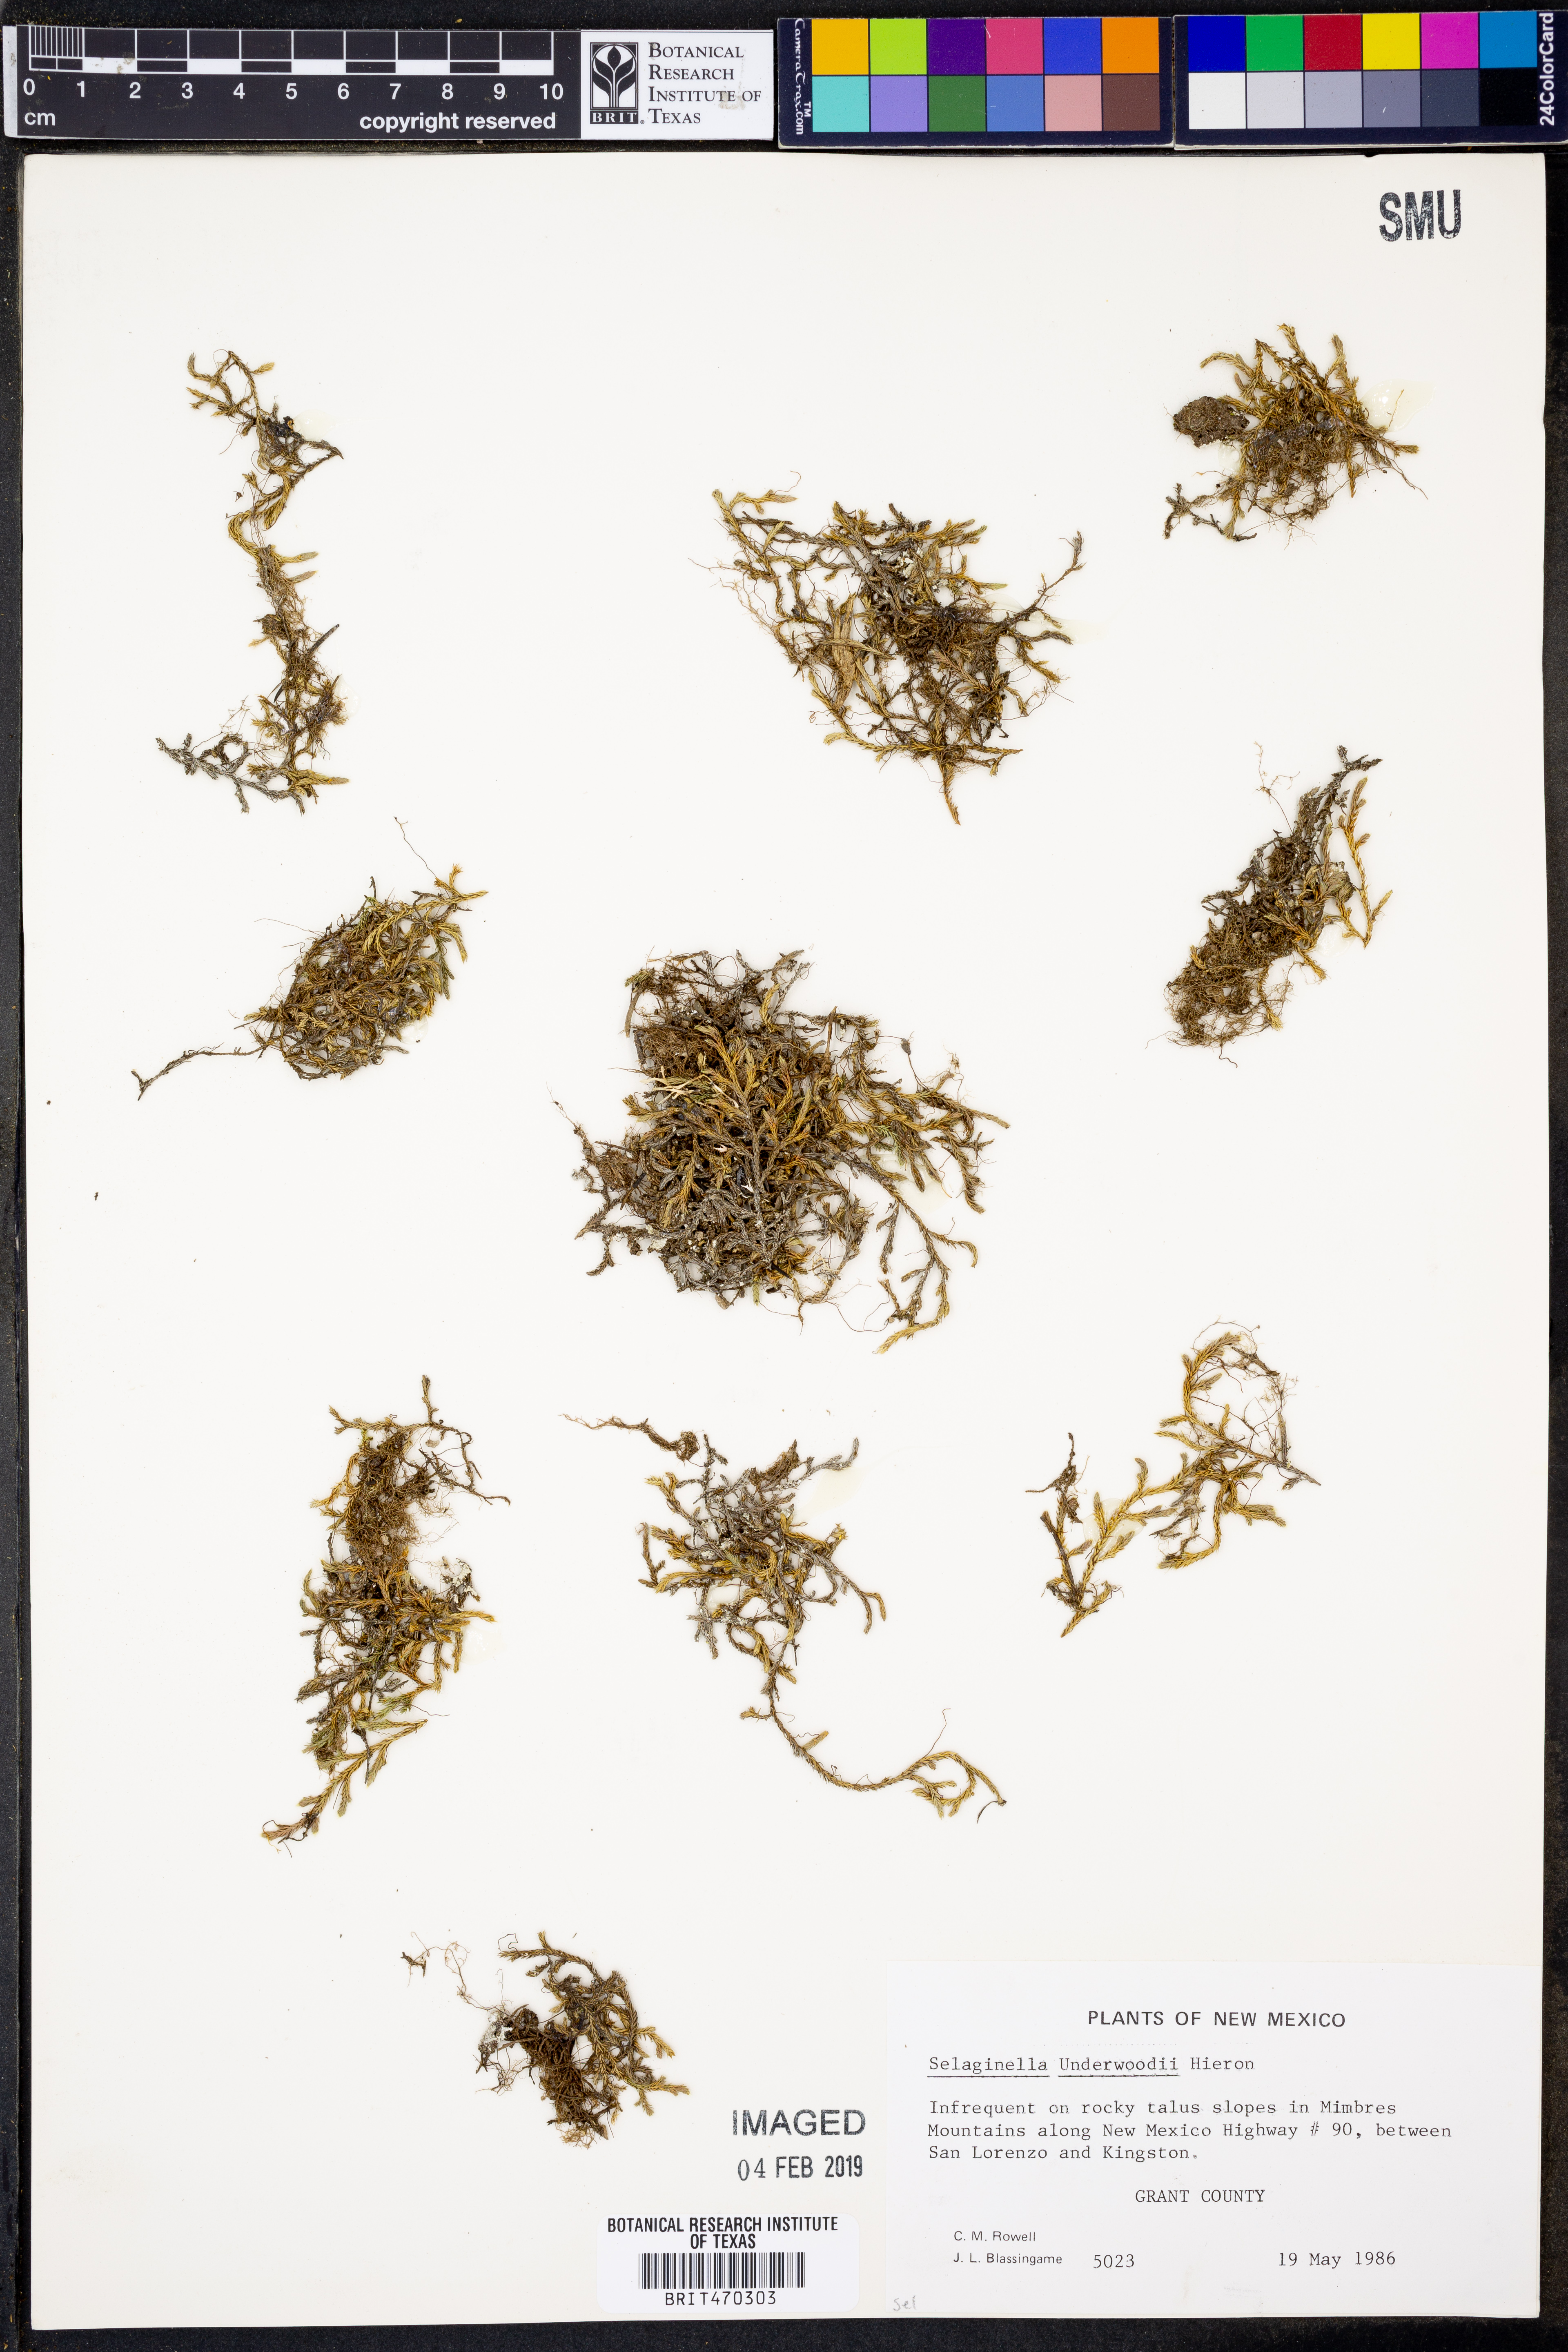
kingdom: Plantae
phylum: Tracheophyta
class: Lycopodiopsida
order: Selaginellales
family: Selaginellaceae
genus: Selaginella
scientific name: Selaginella underwoodii
